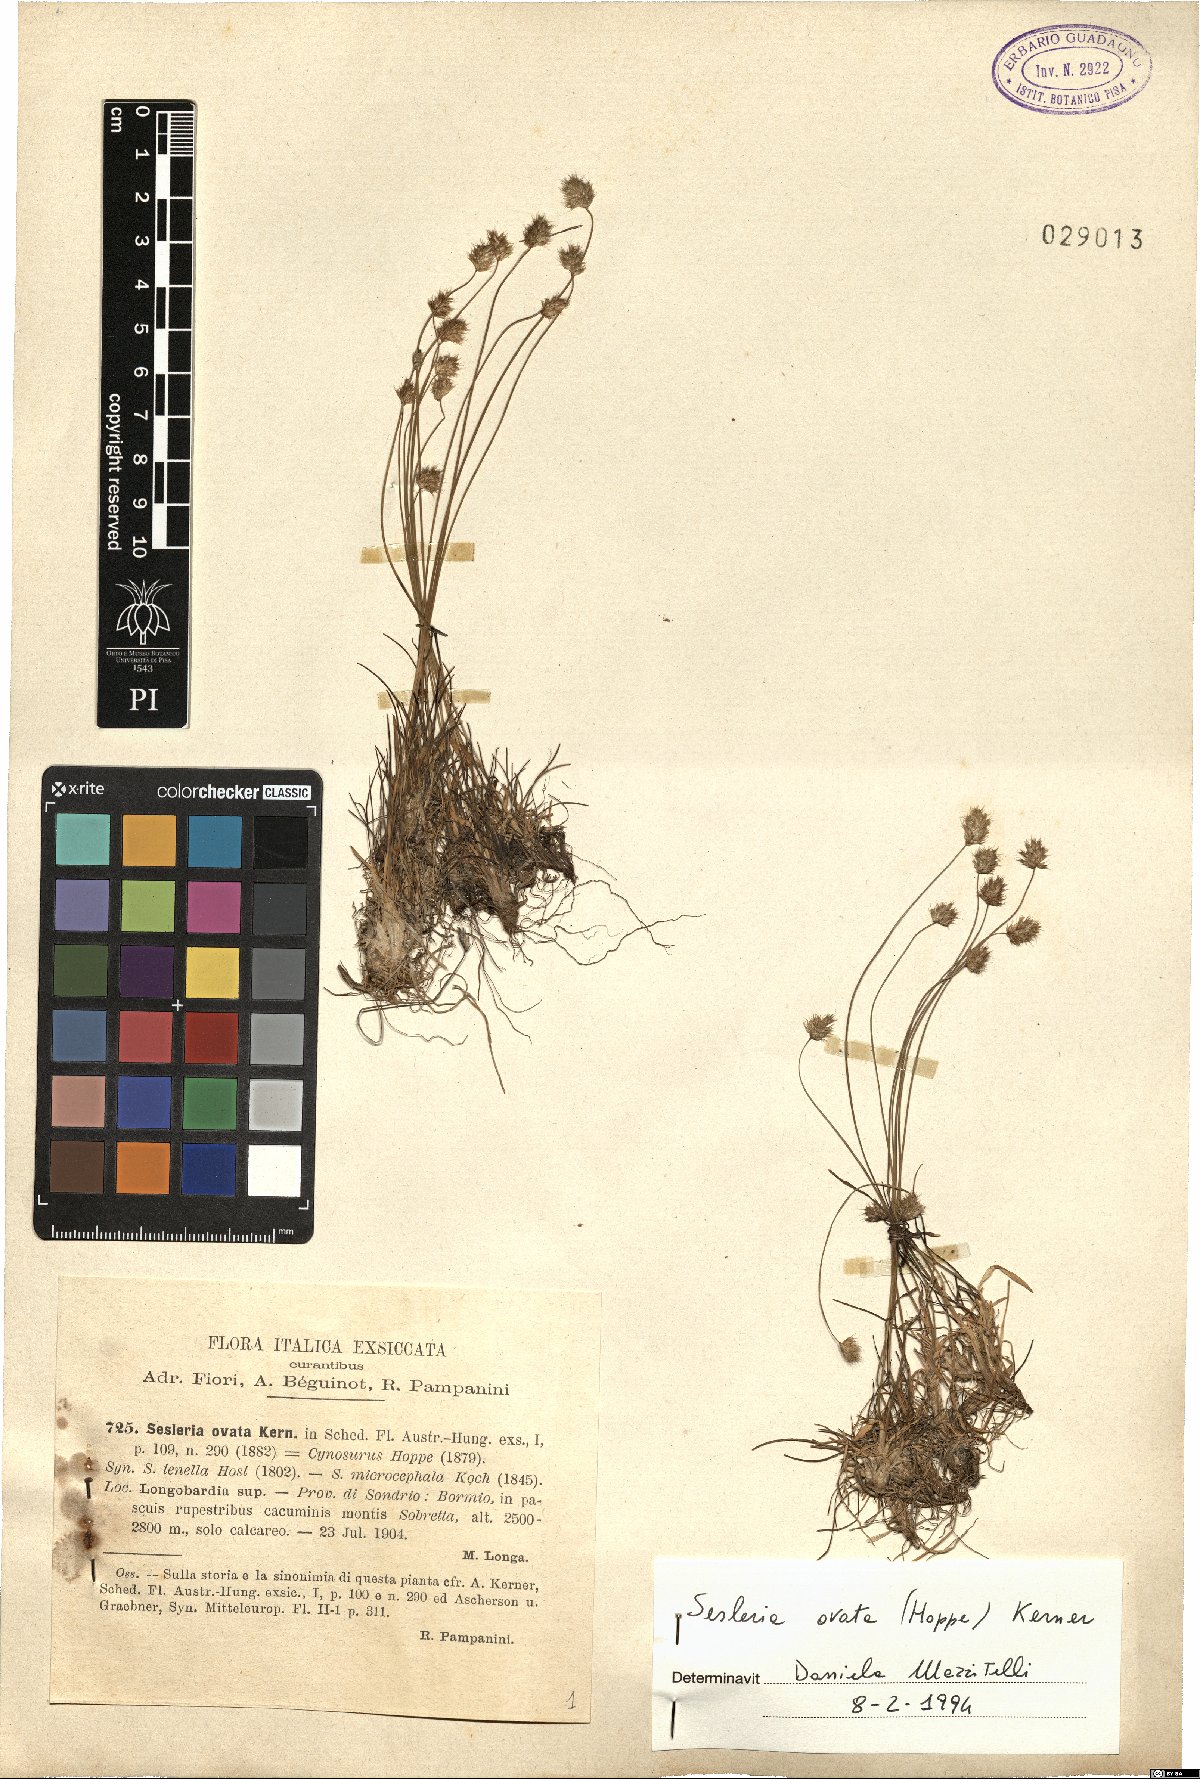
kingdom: Plantae
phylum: Tracheophyta
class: Liliopsida
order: Poales
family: Poaceae
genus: Psilathera
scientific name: Psilathera ovata
